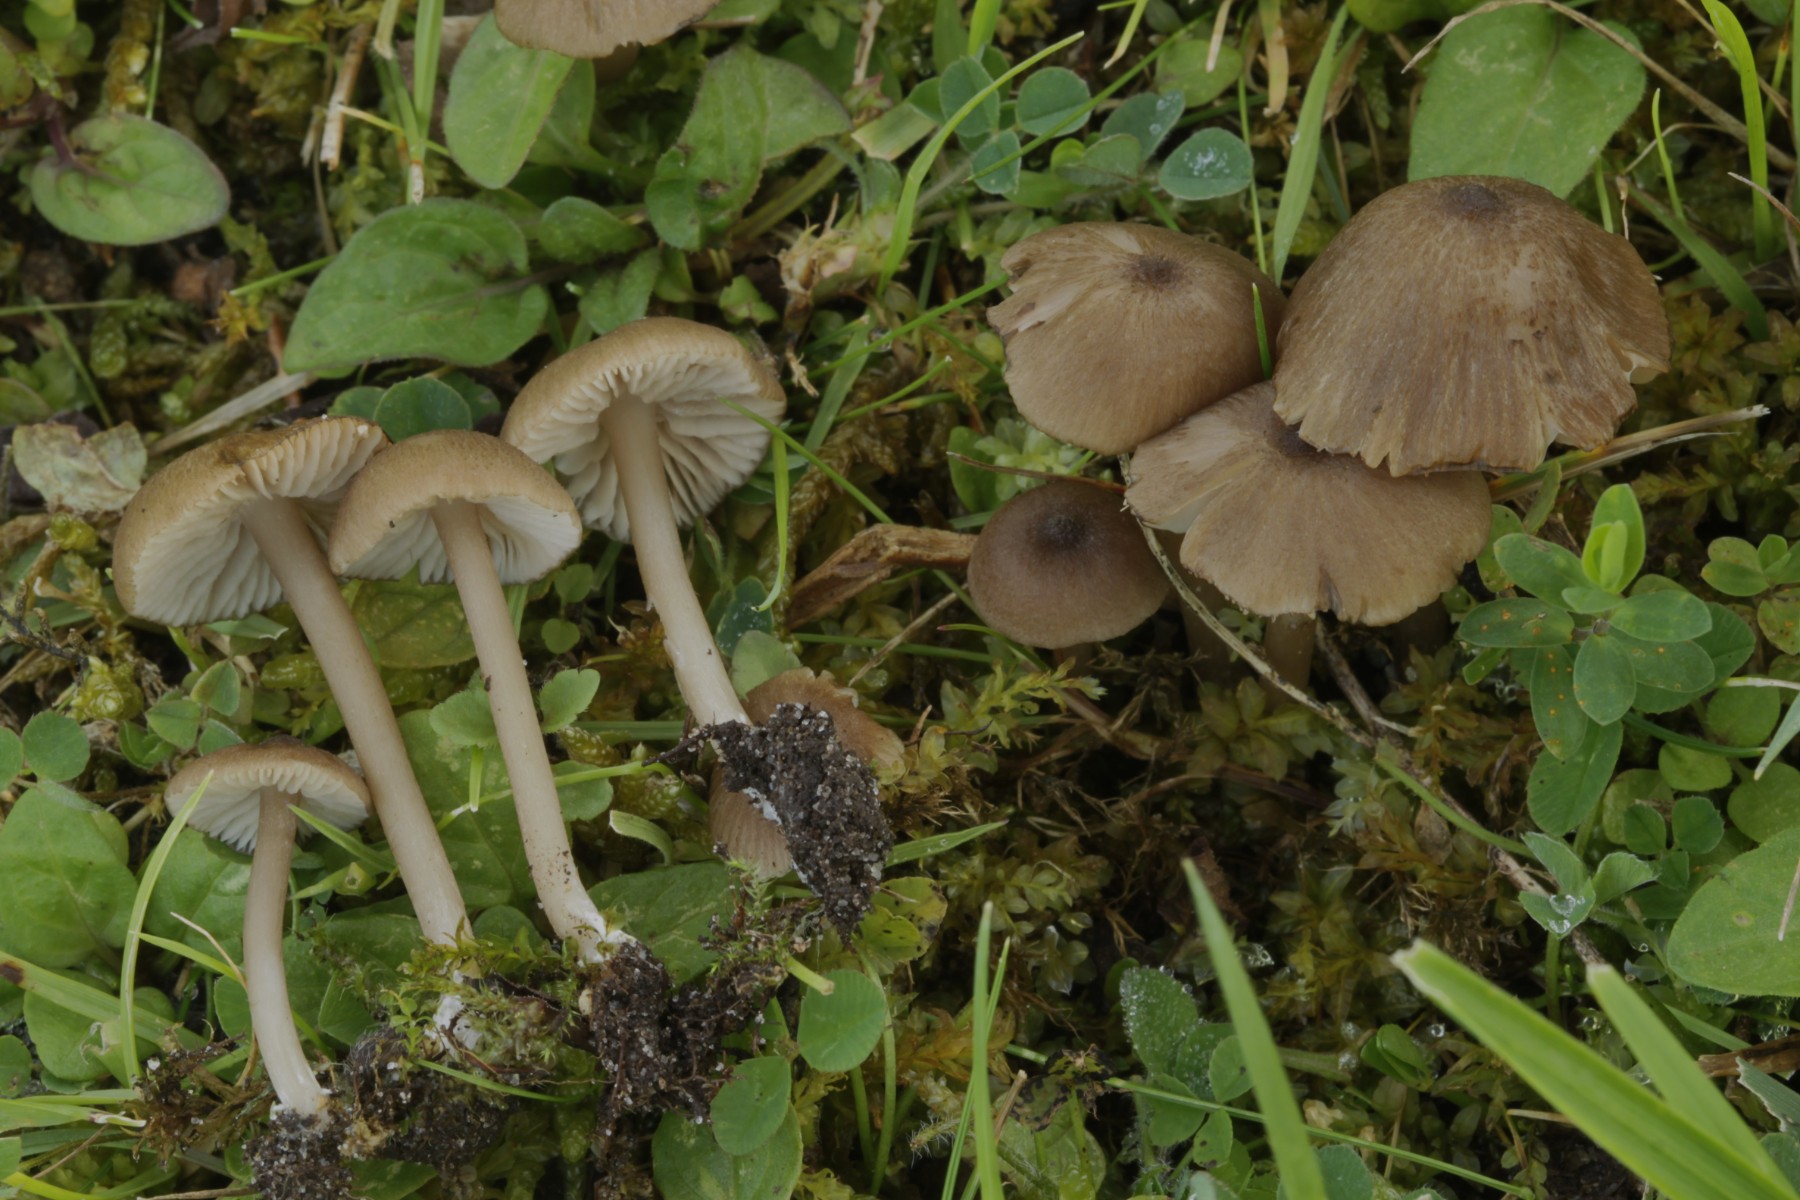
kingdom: Fungi
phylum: Basidiomycota
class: Agaricomycetes
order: Agaricales
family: Entolomataceae
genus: Entoloma
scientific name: Entoloma
